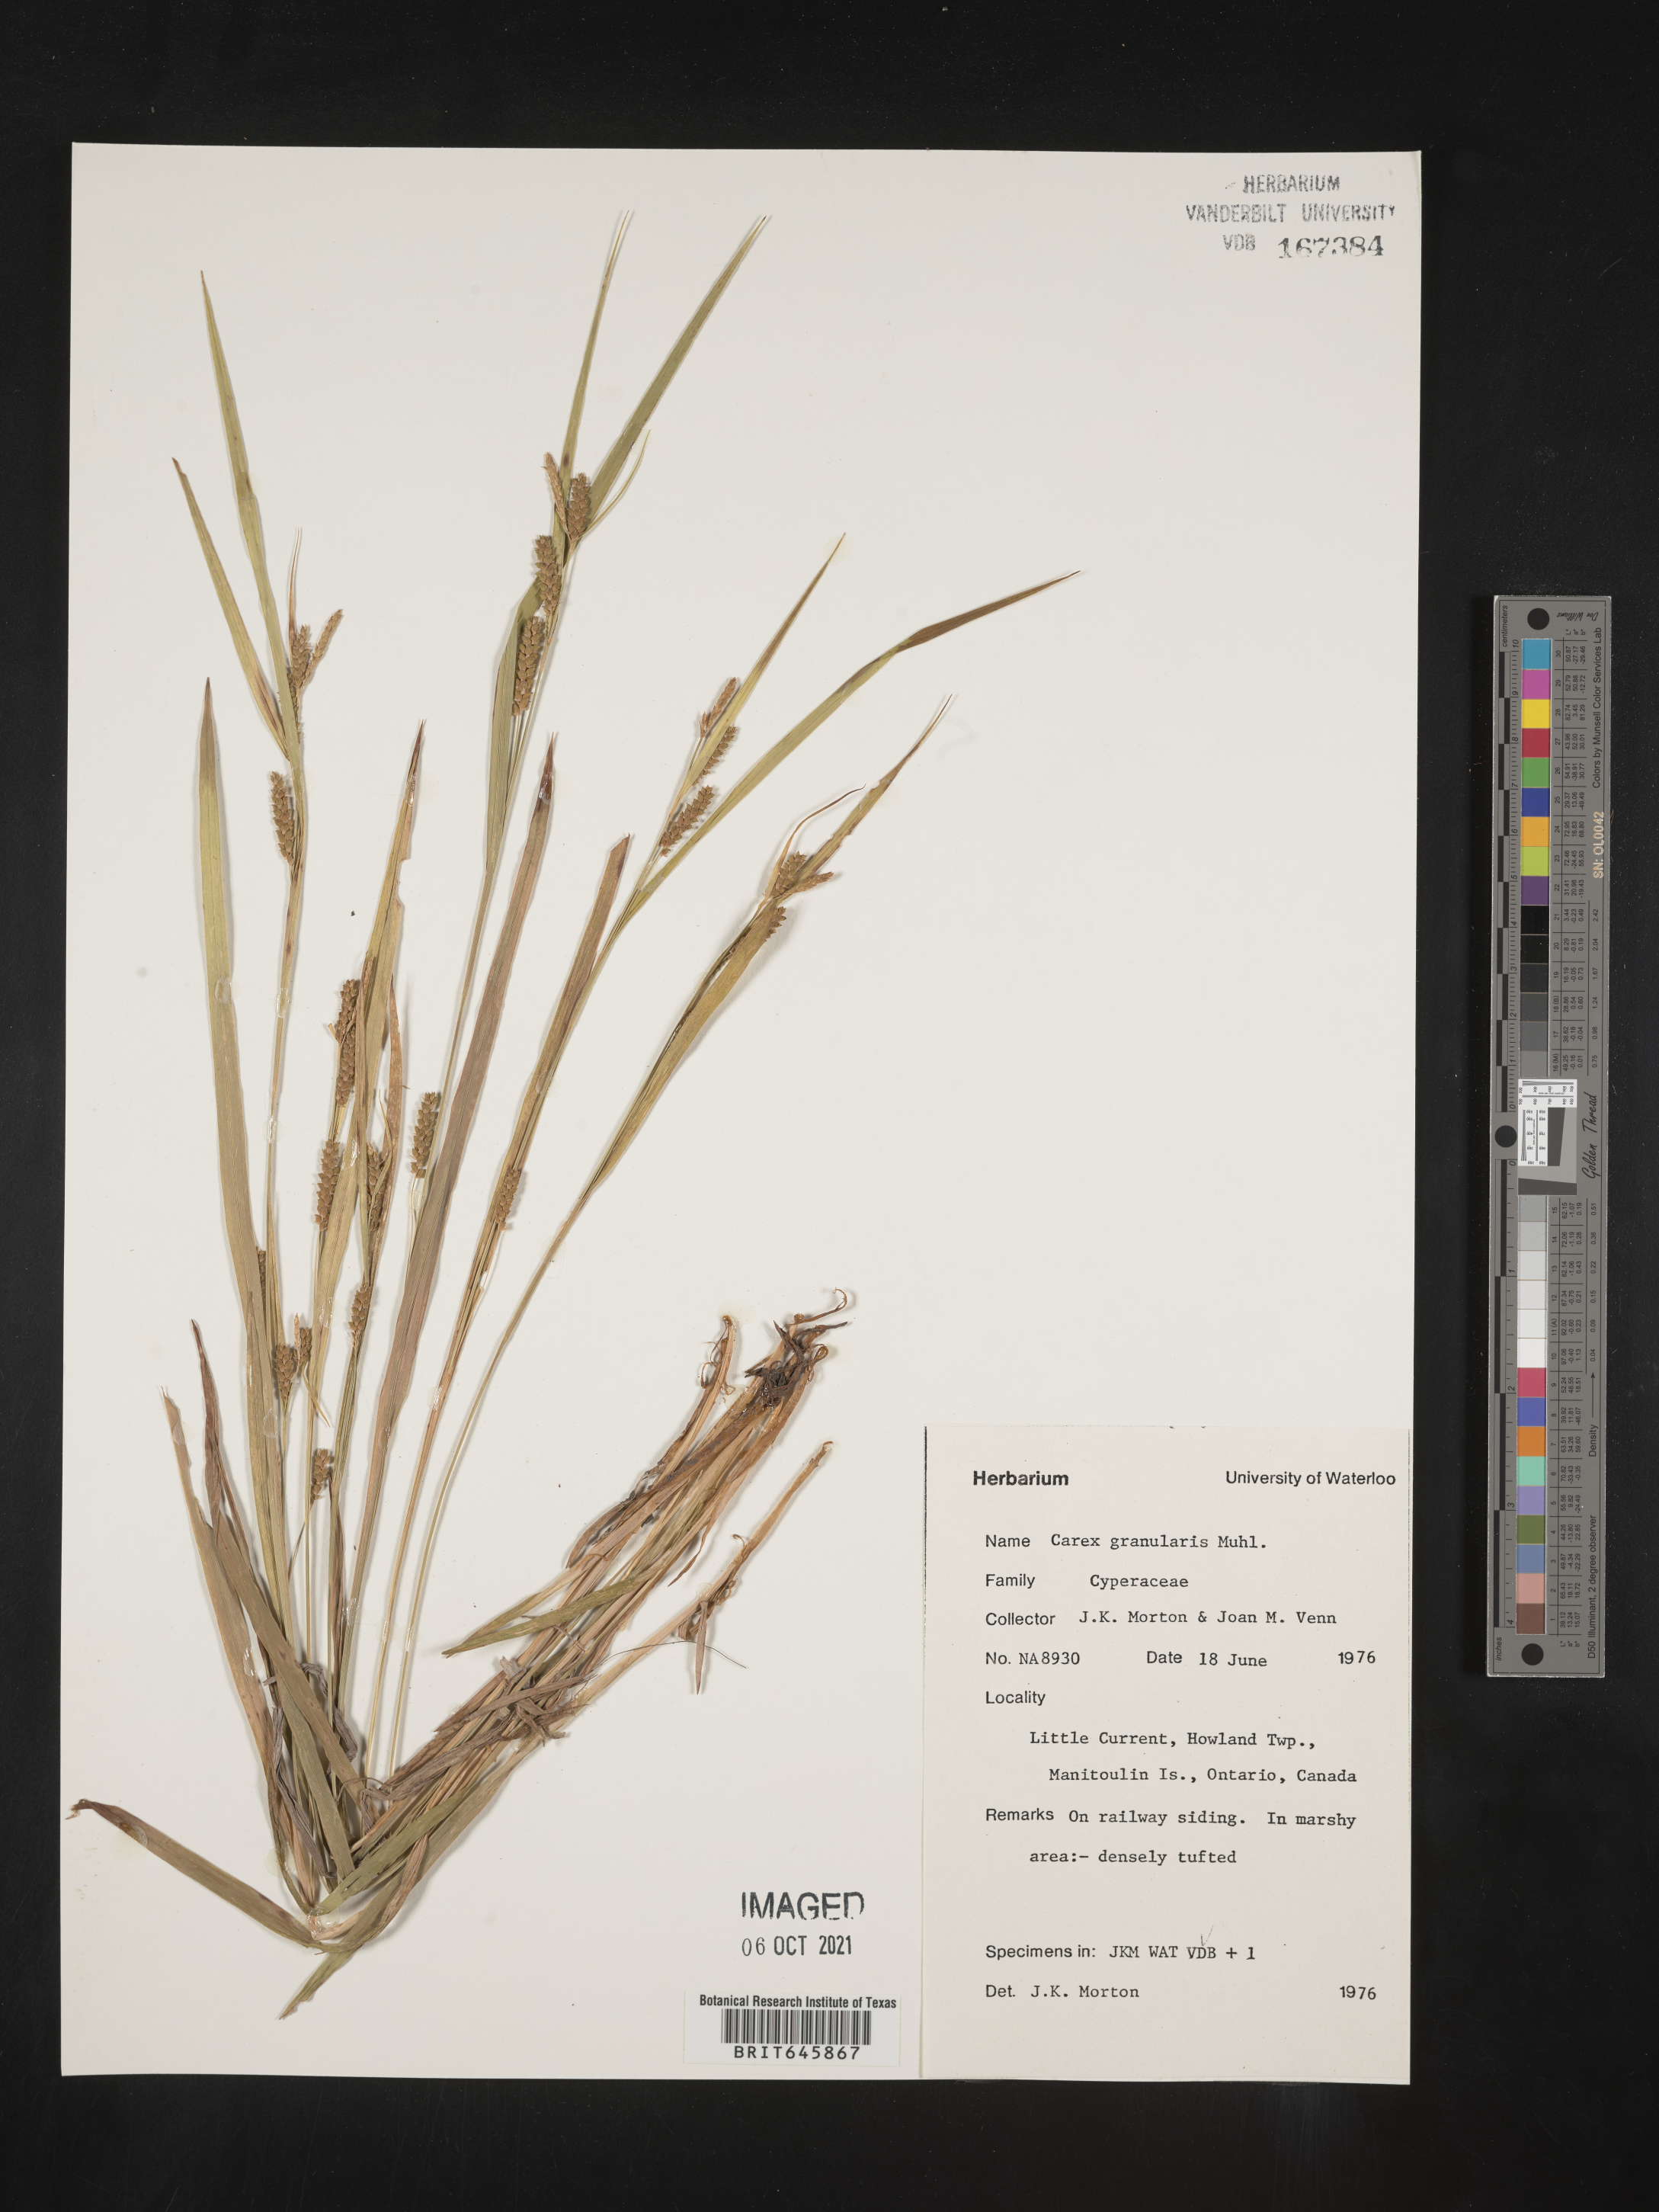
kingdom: Plantae
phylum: Tracheophyta
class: Liliopsida
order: Poales
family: Cyperaceae
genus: Carex
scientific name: Carex granularis
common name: Granular sedge
